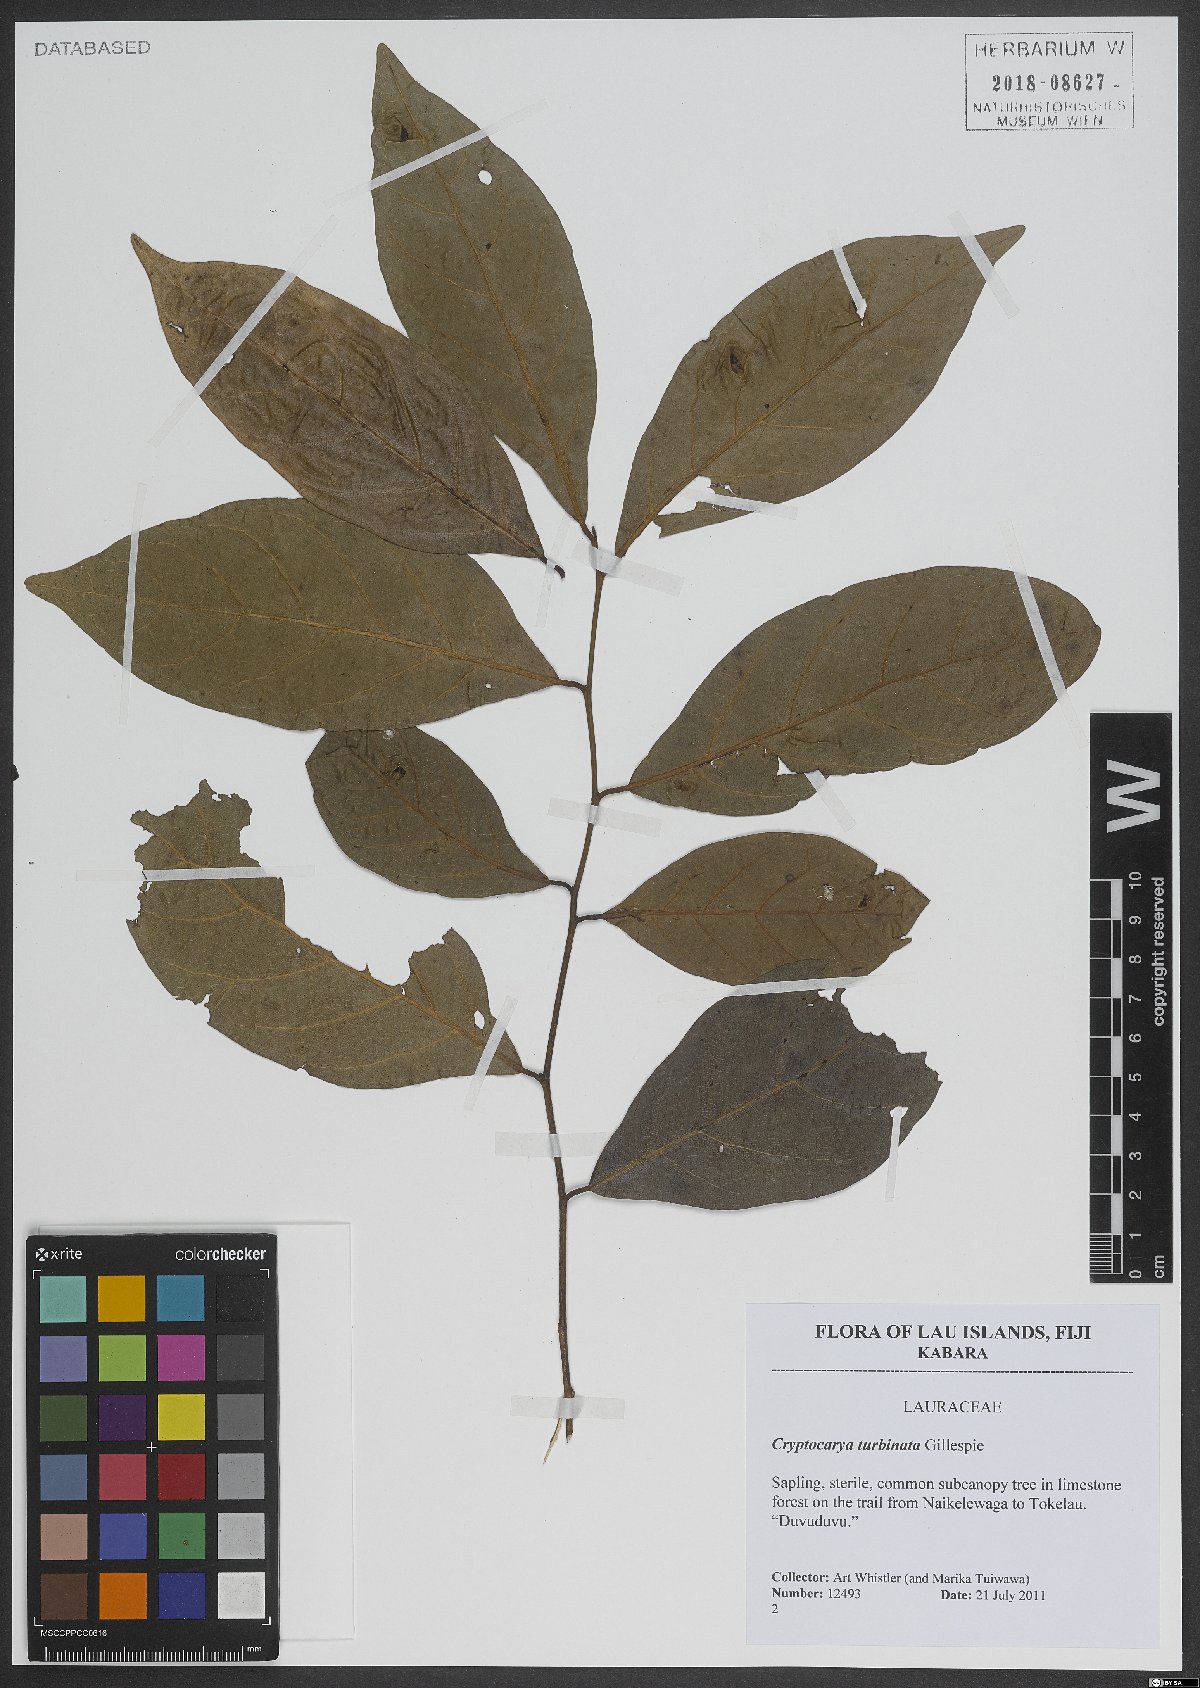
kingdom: Plantae
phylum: Tracheophyta
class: Magnoliopsida
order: Laurales
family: Lauraceae
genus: Cryptocarya
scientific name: Cryptocarya turbinata
